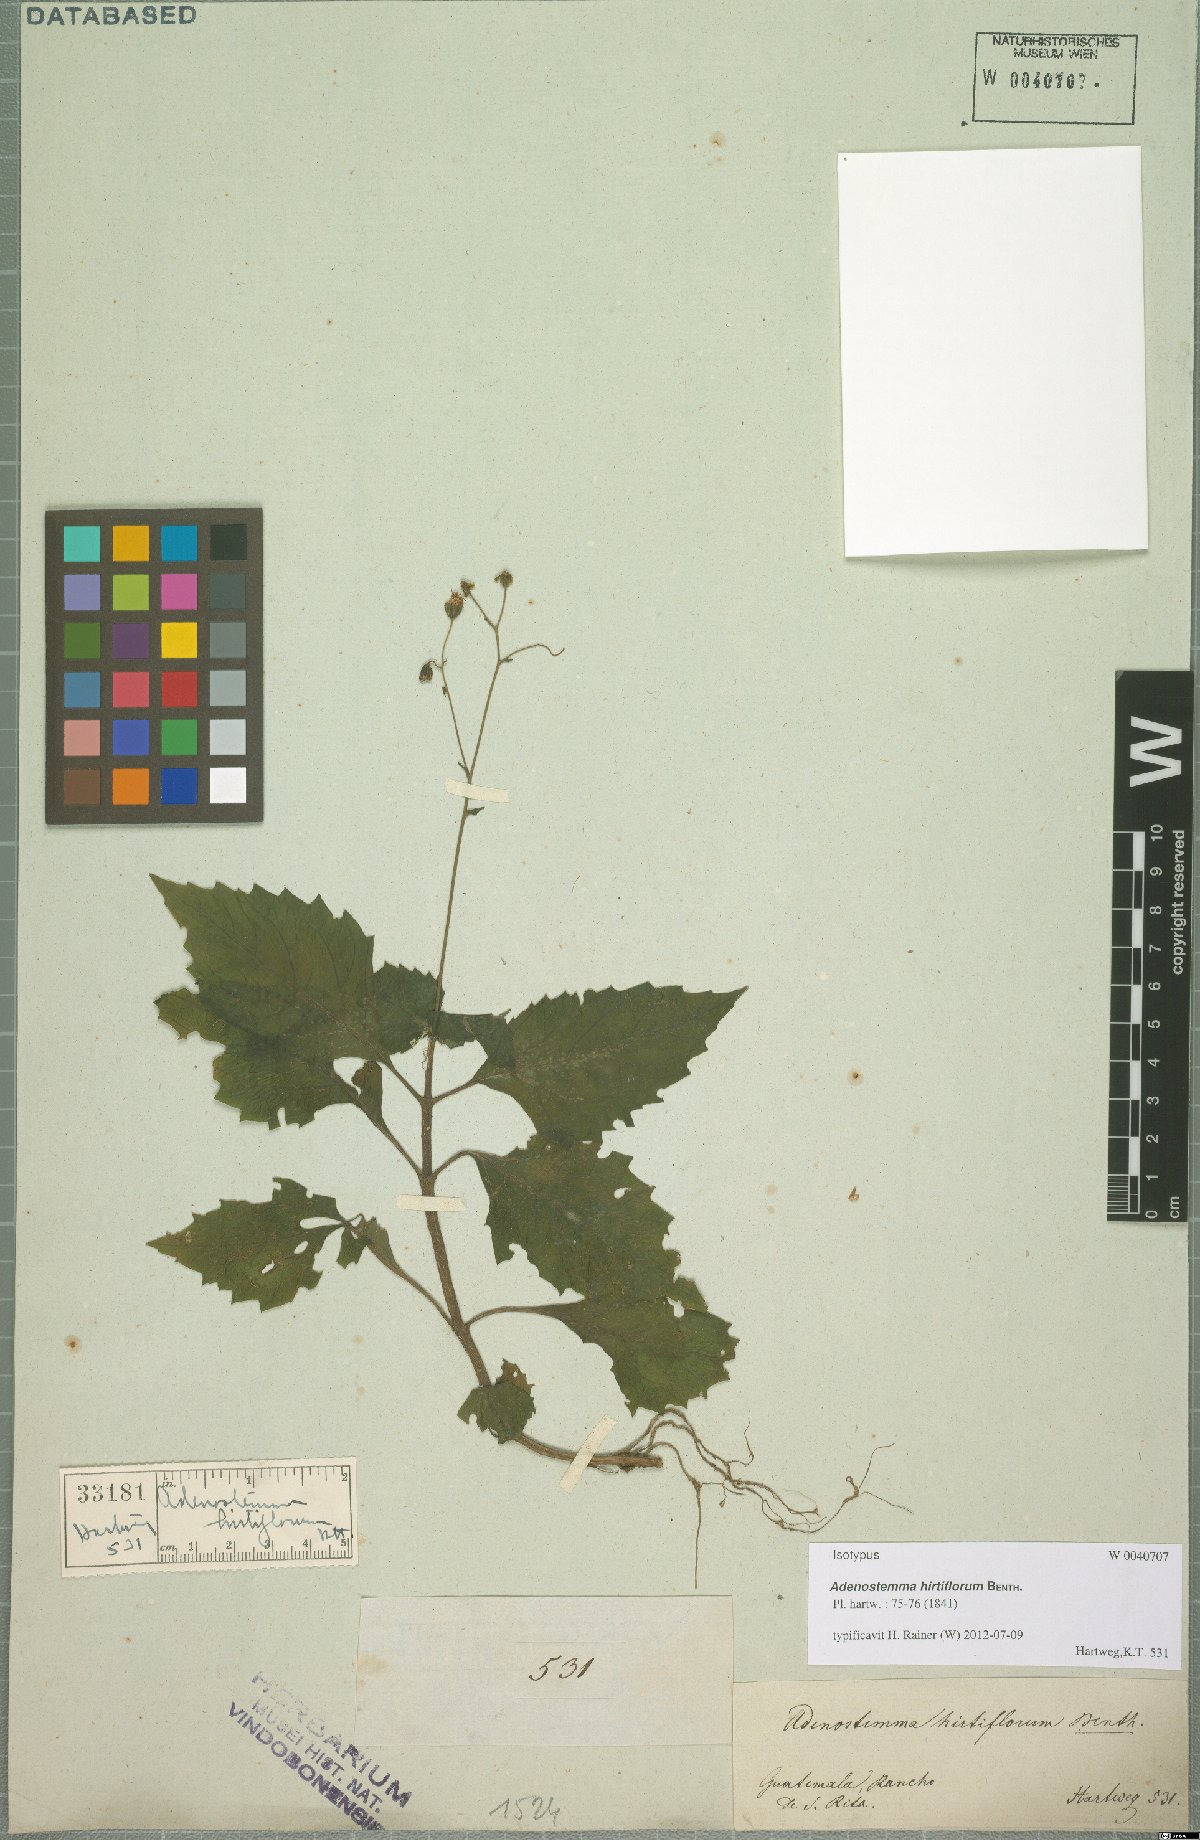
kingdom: Plantae
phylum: Tracheophyta
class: Magnoliopsida
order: Asterales
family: Asteraceae
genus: Adenostemma
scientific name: Adenostemma hirtiflorum
